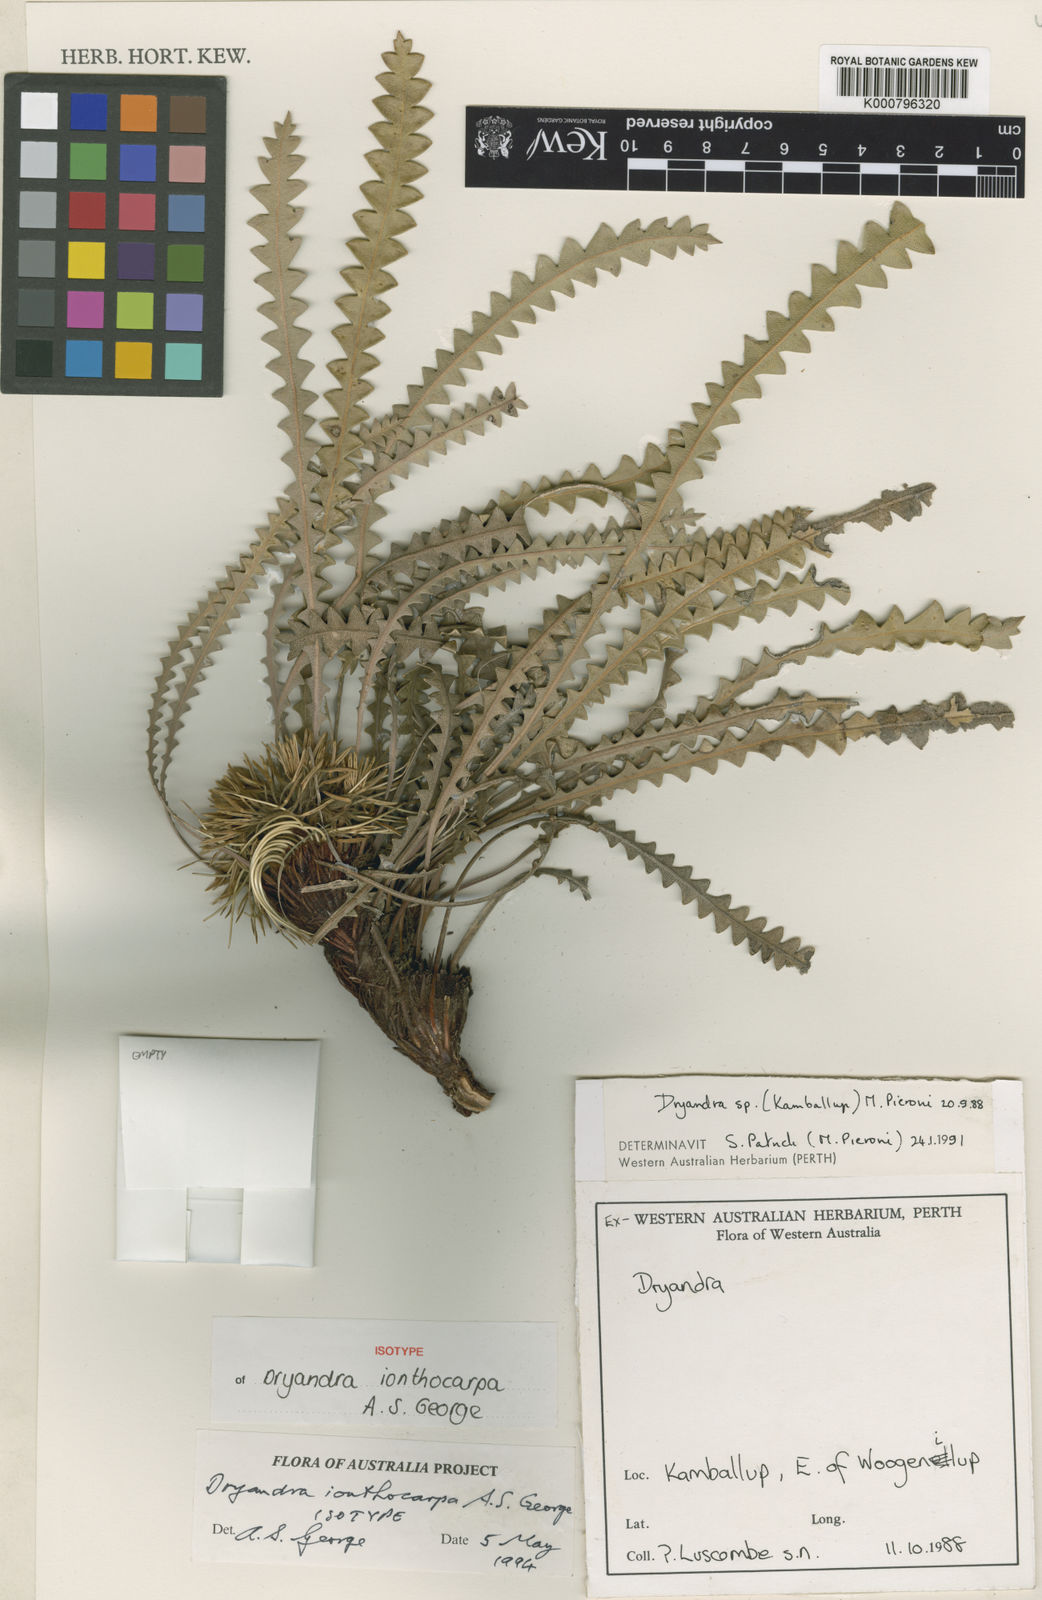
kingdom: Plantae
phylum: Tracheophyta
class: Magnoliopsida
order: Proteales
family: Proteaceae
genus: Banksia
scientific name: Banksia ionthocarpa
